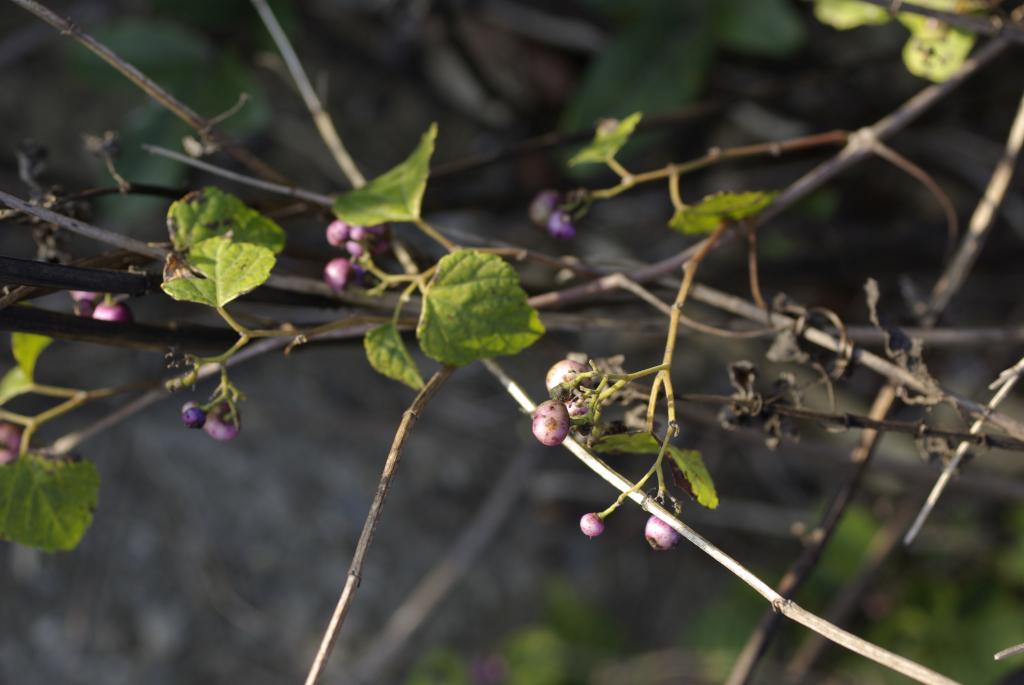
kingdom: Plantae
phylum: Tracheophyta
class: Magnoliopsida
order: Vitales
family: Vitaceae
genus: Ampelopsis
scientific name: Ampelopsis glandulosa
